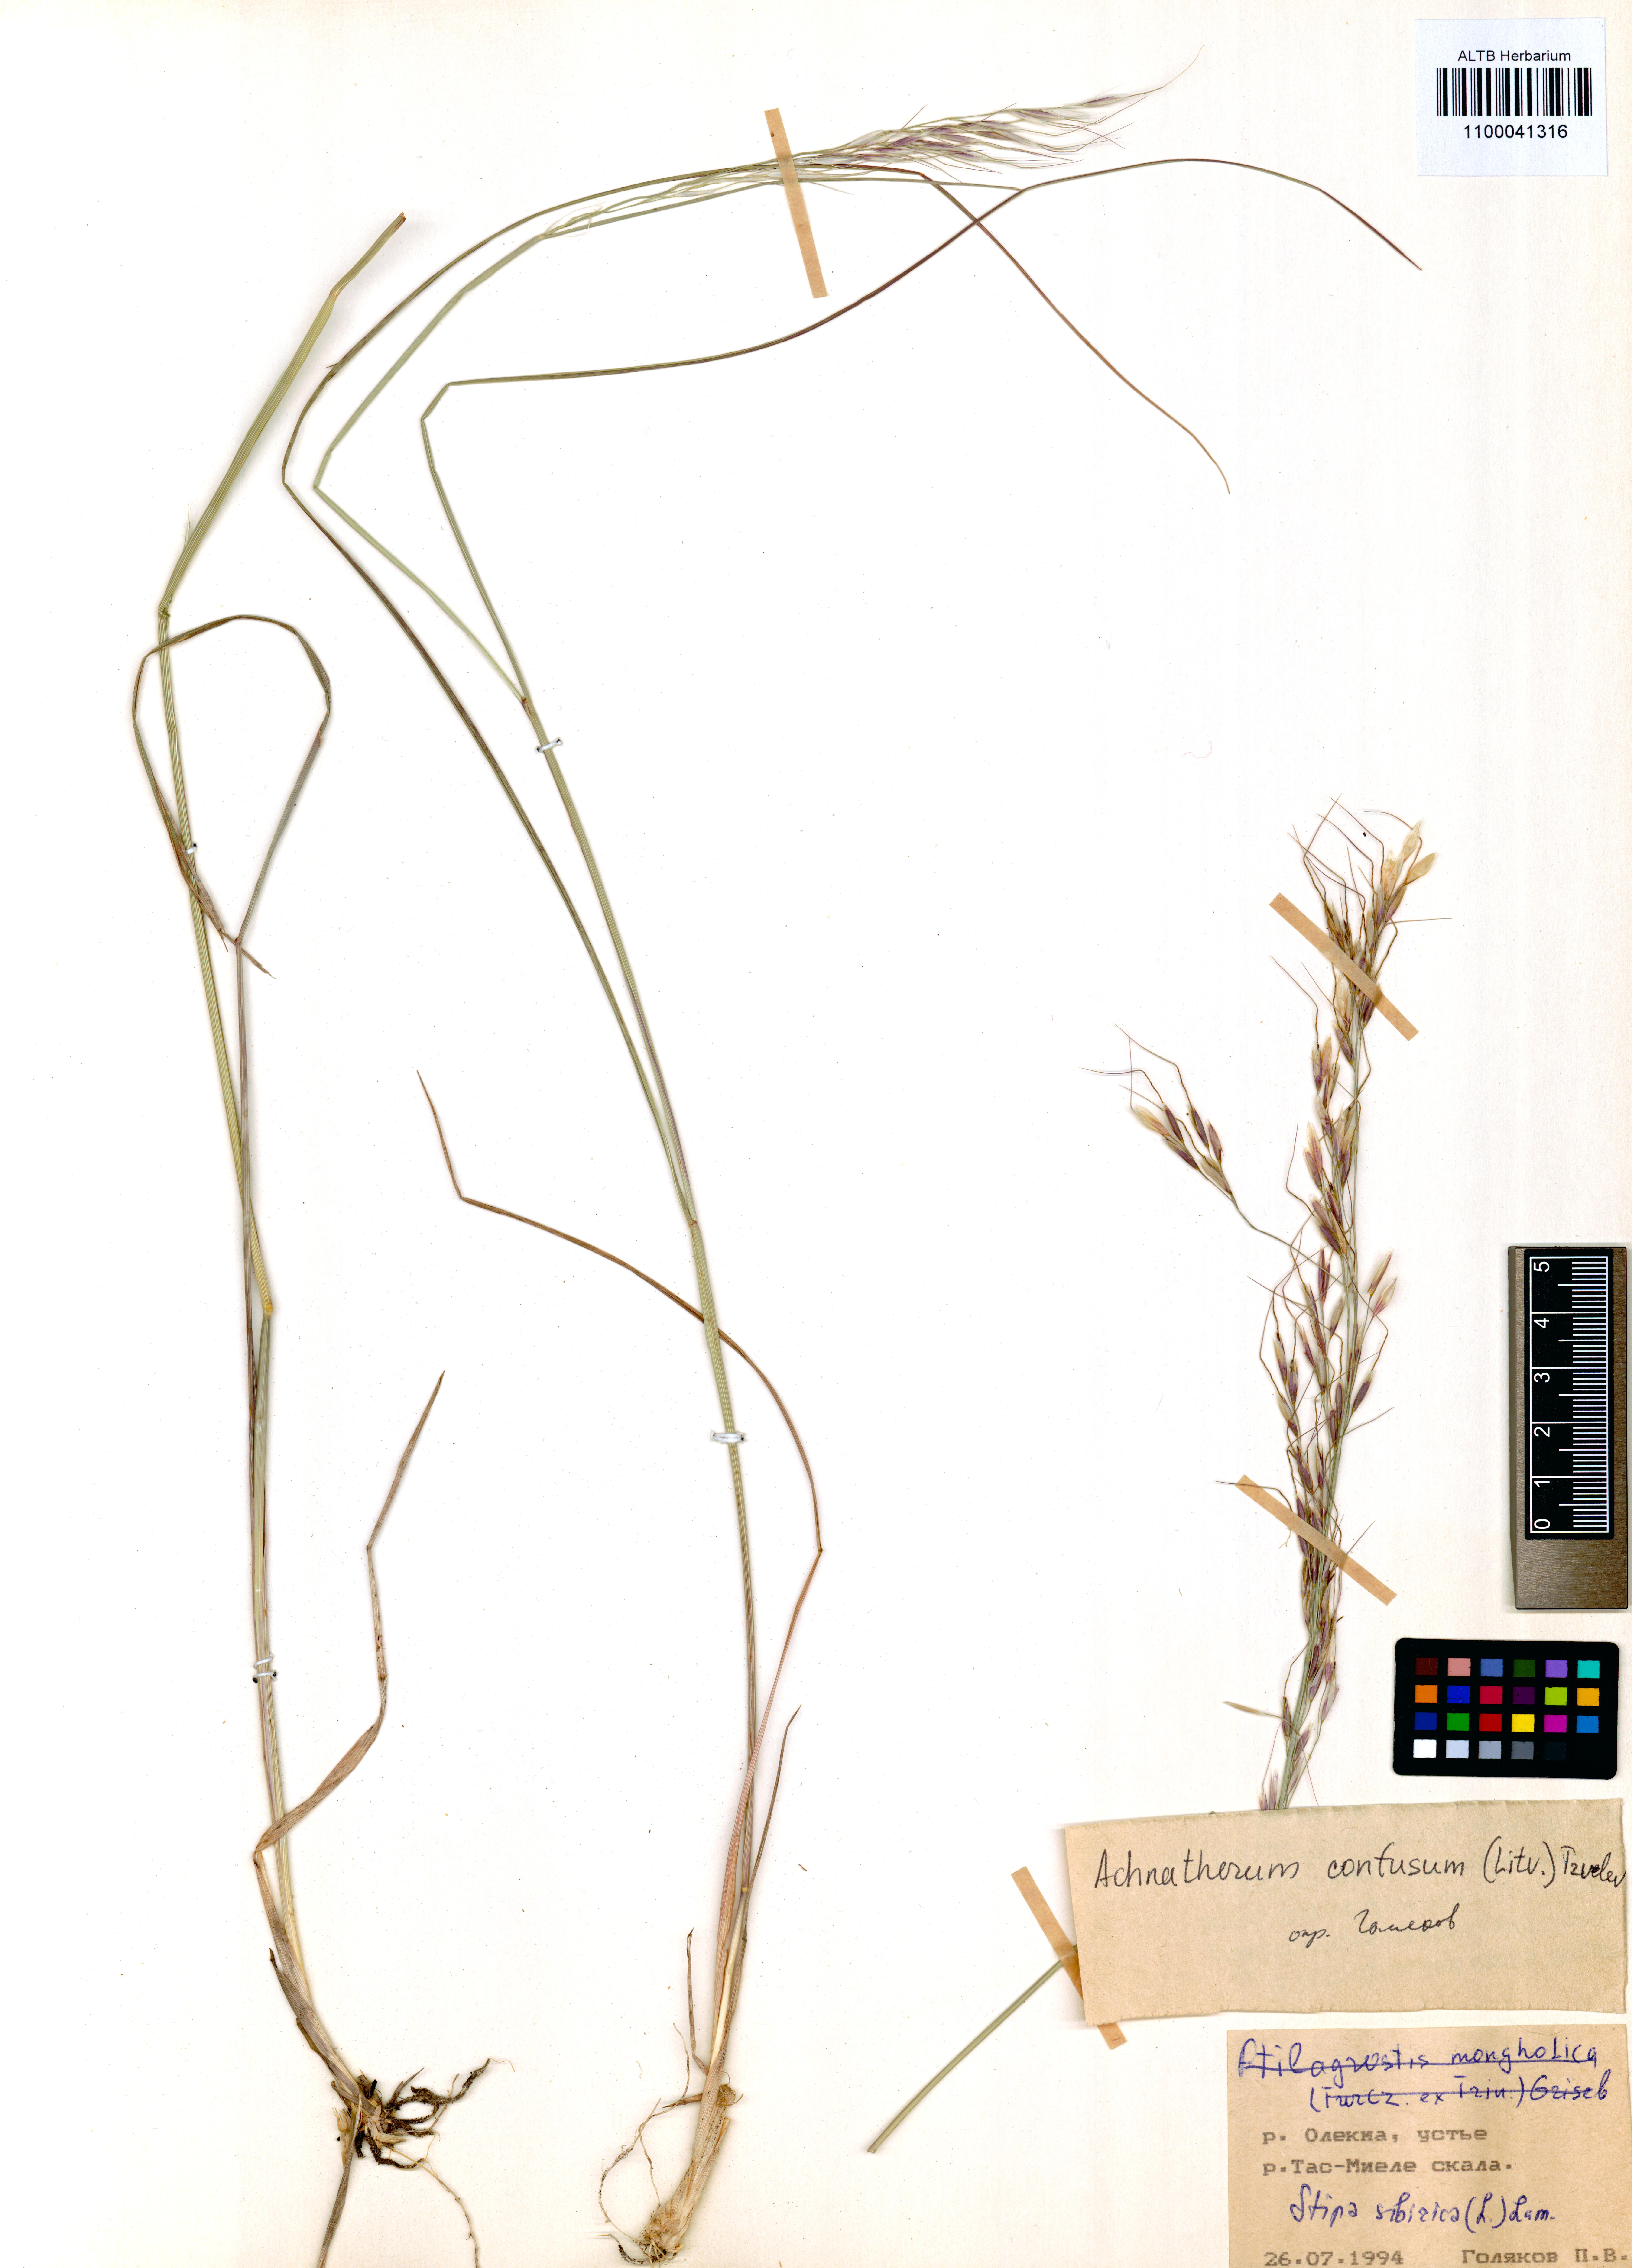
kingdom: Plantae
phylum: Tracheophyta
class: Liliopsida
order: Poales
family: Poaceae
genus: Achnatherum
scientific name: Achnatherum confusum
